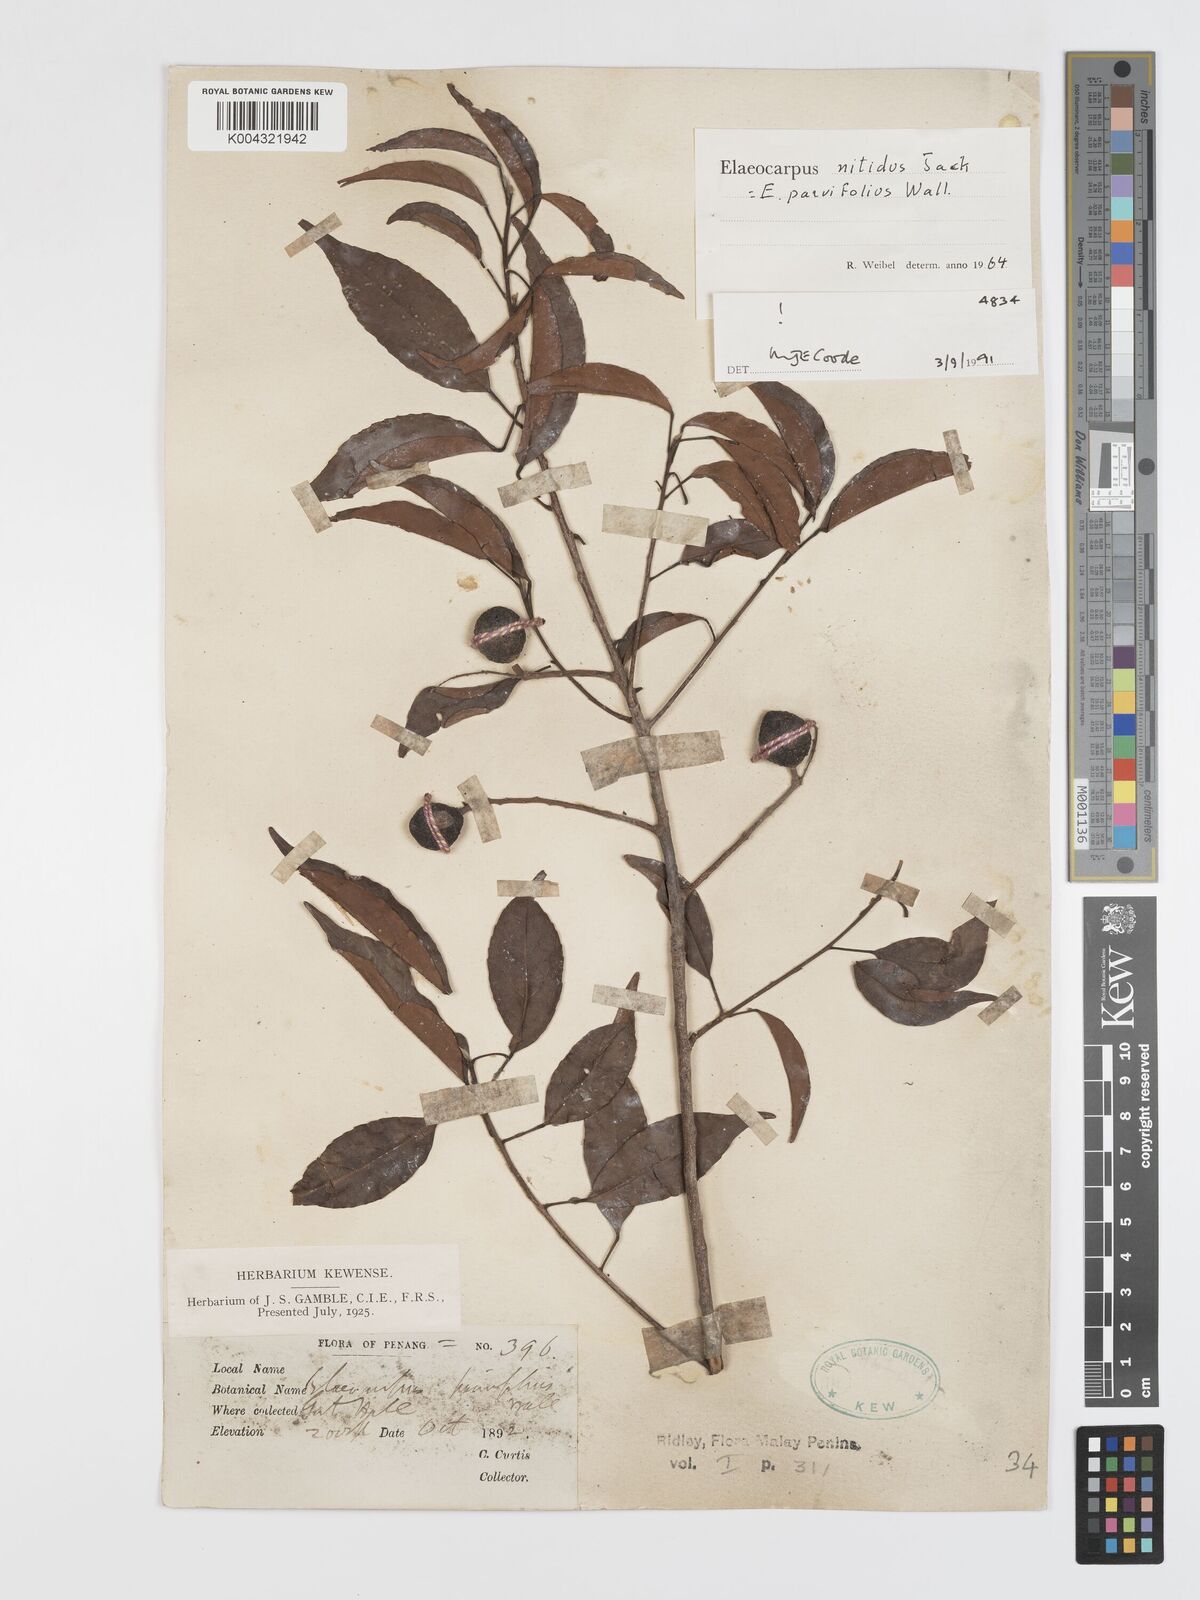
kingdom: Plantae
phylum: Tracheophyta
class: Magnoliopsida
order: Oxalidales
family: Elaeocarpaceae
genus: Elaeocarpus
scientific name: Elaeocarpus nitidus
